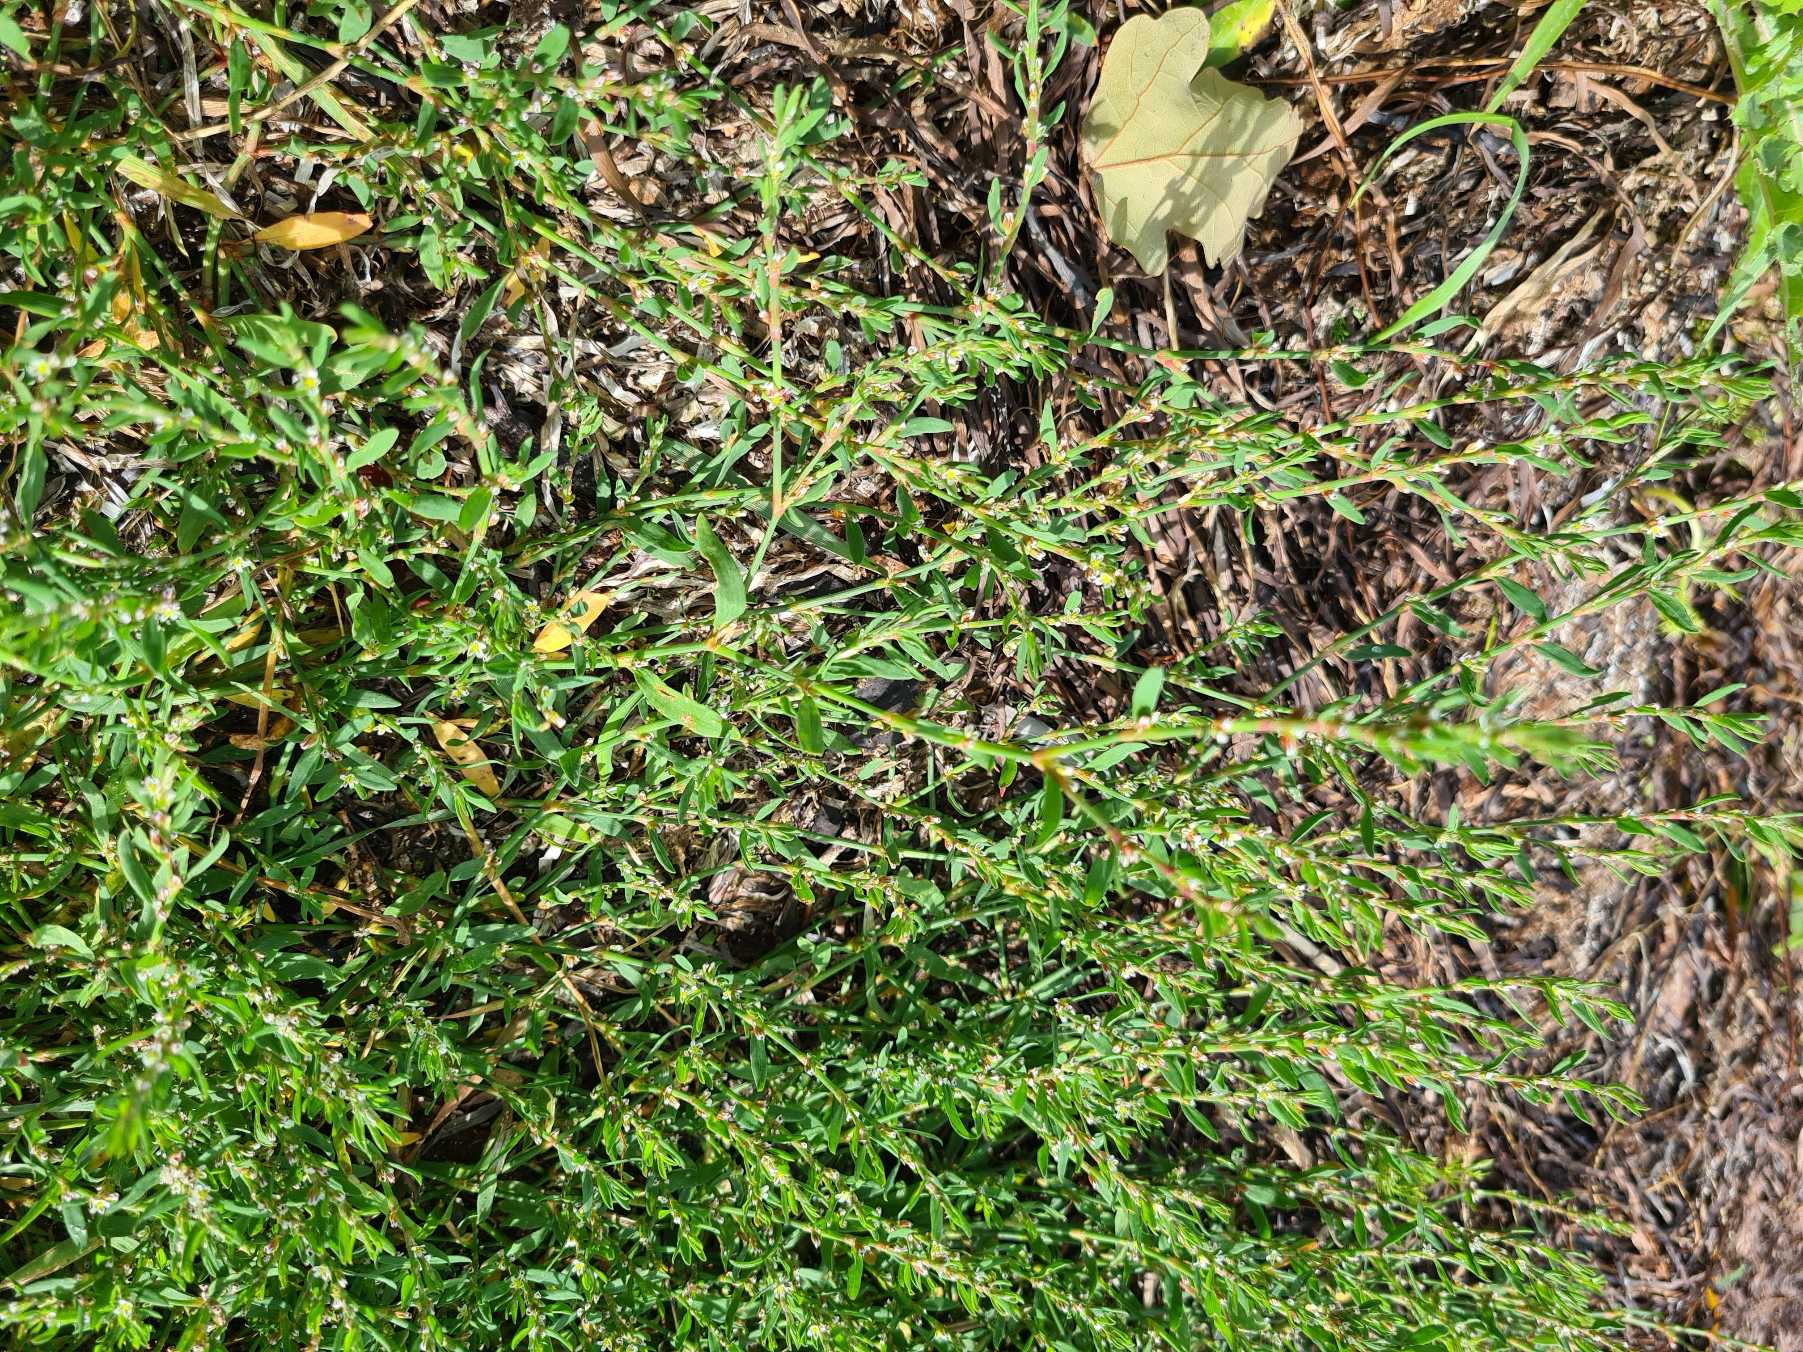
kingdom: Plantae
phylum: Tracheophyta
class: Magnoliopsida
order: Caryophyllales
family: Polygonaceae
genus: Polygonum
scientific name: Polygonum aviculare
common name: Vej-pileurt
